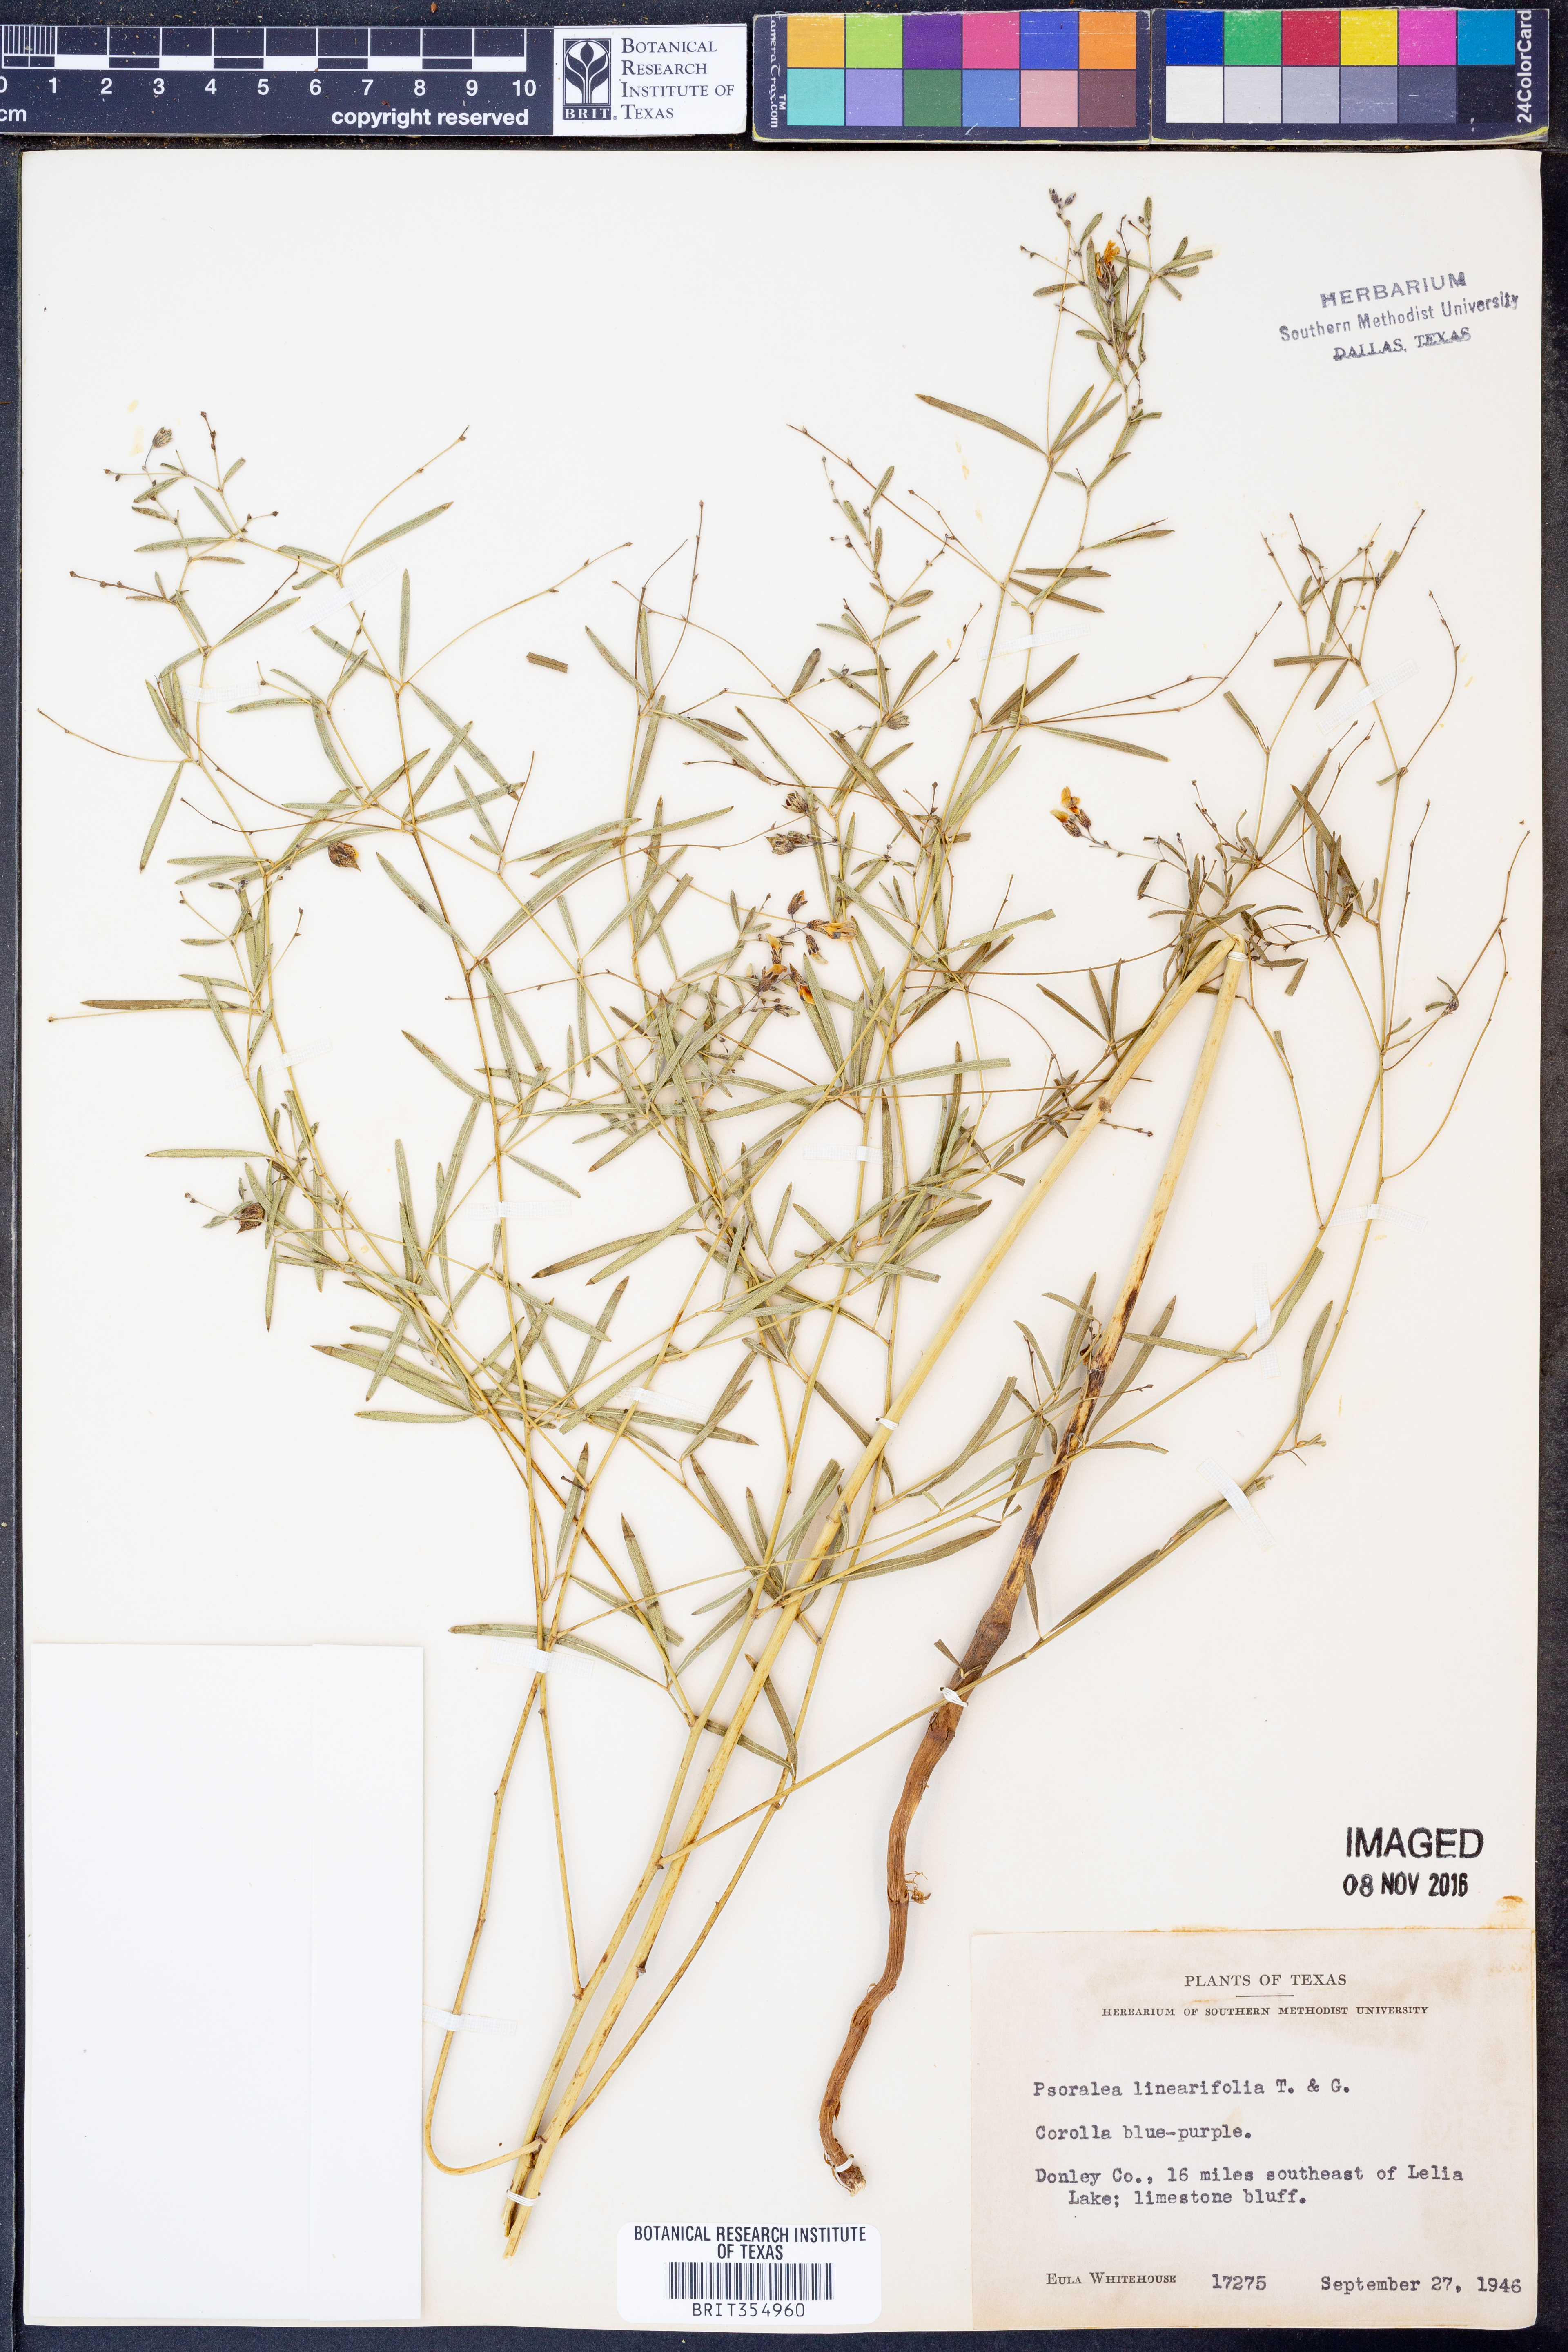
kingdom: Plantae
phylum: Tracheophyta
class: Magnoliopsida
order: Fabales
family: Fabaceae
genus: Pediomelum
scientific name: Pediomelum linearifolium
